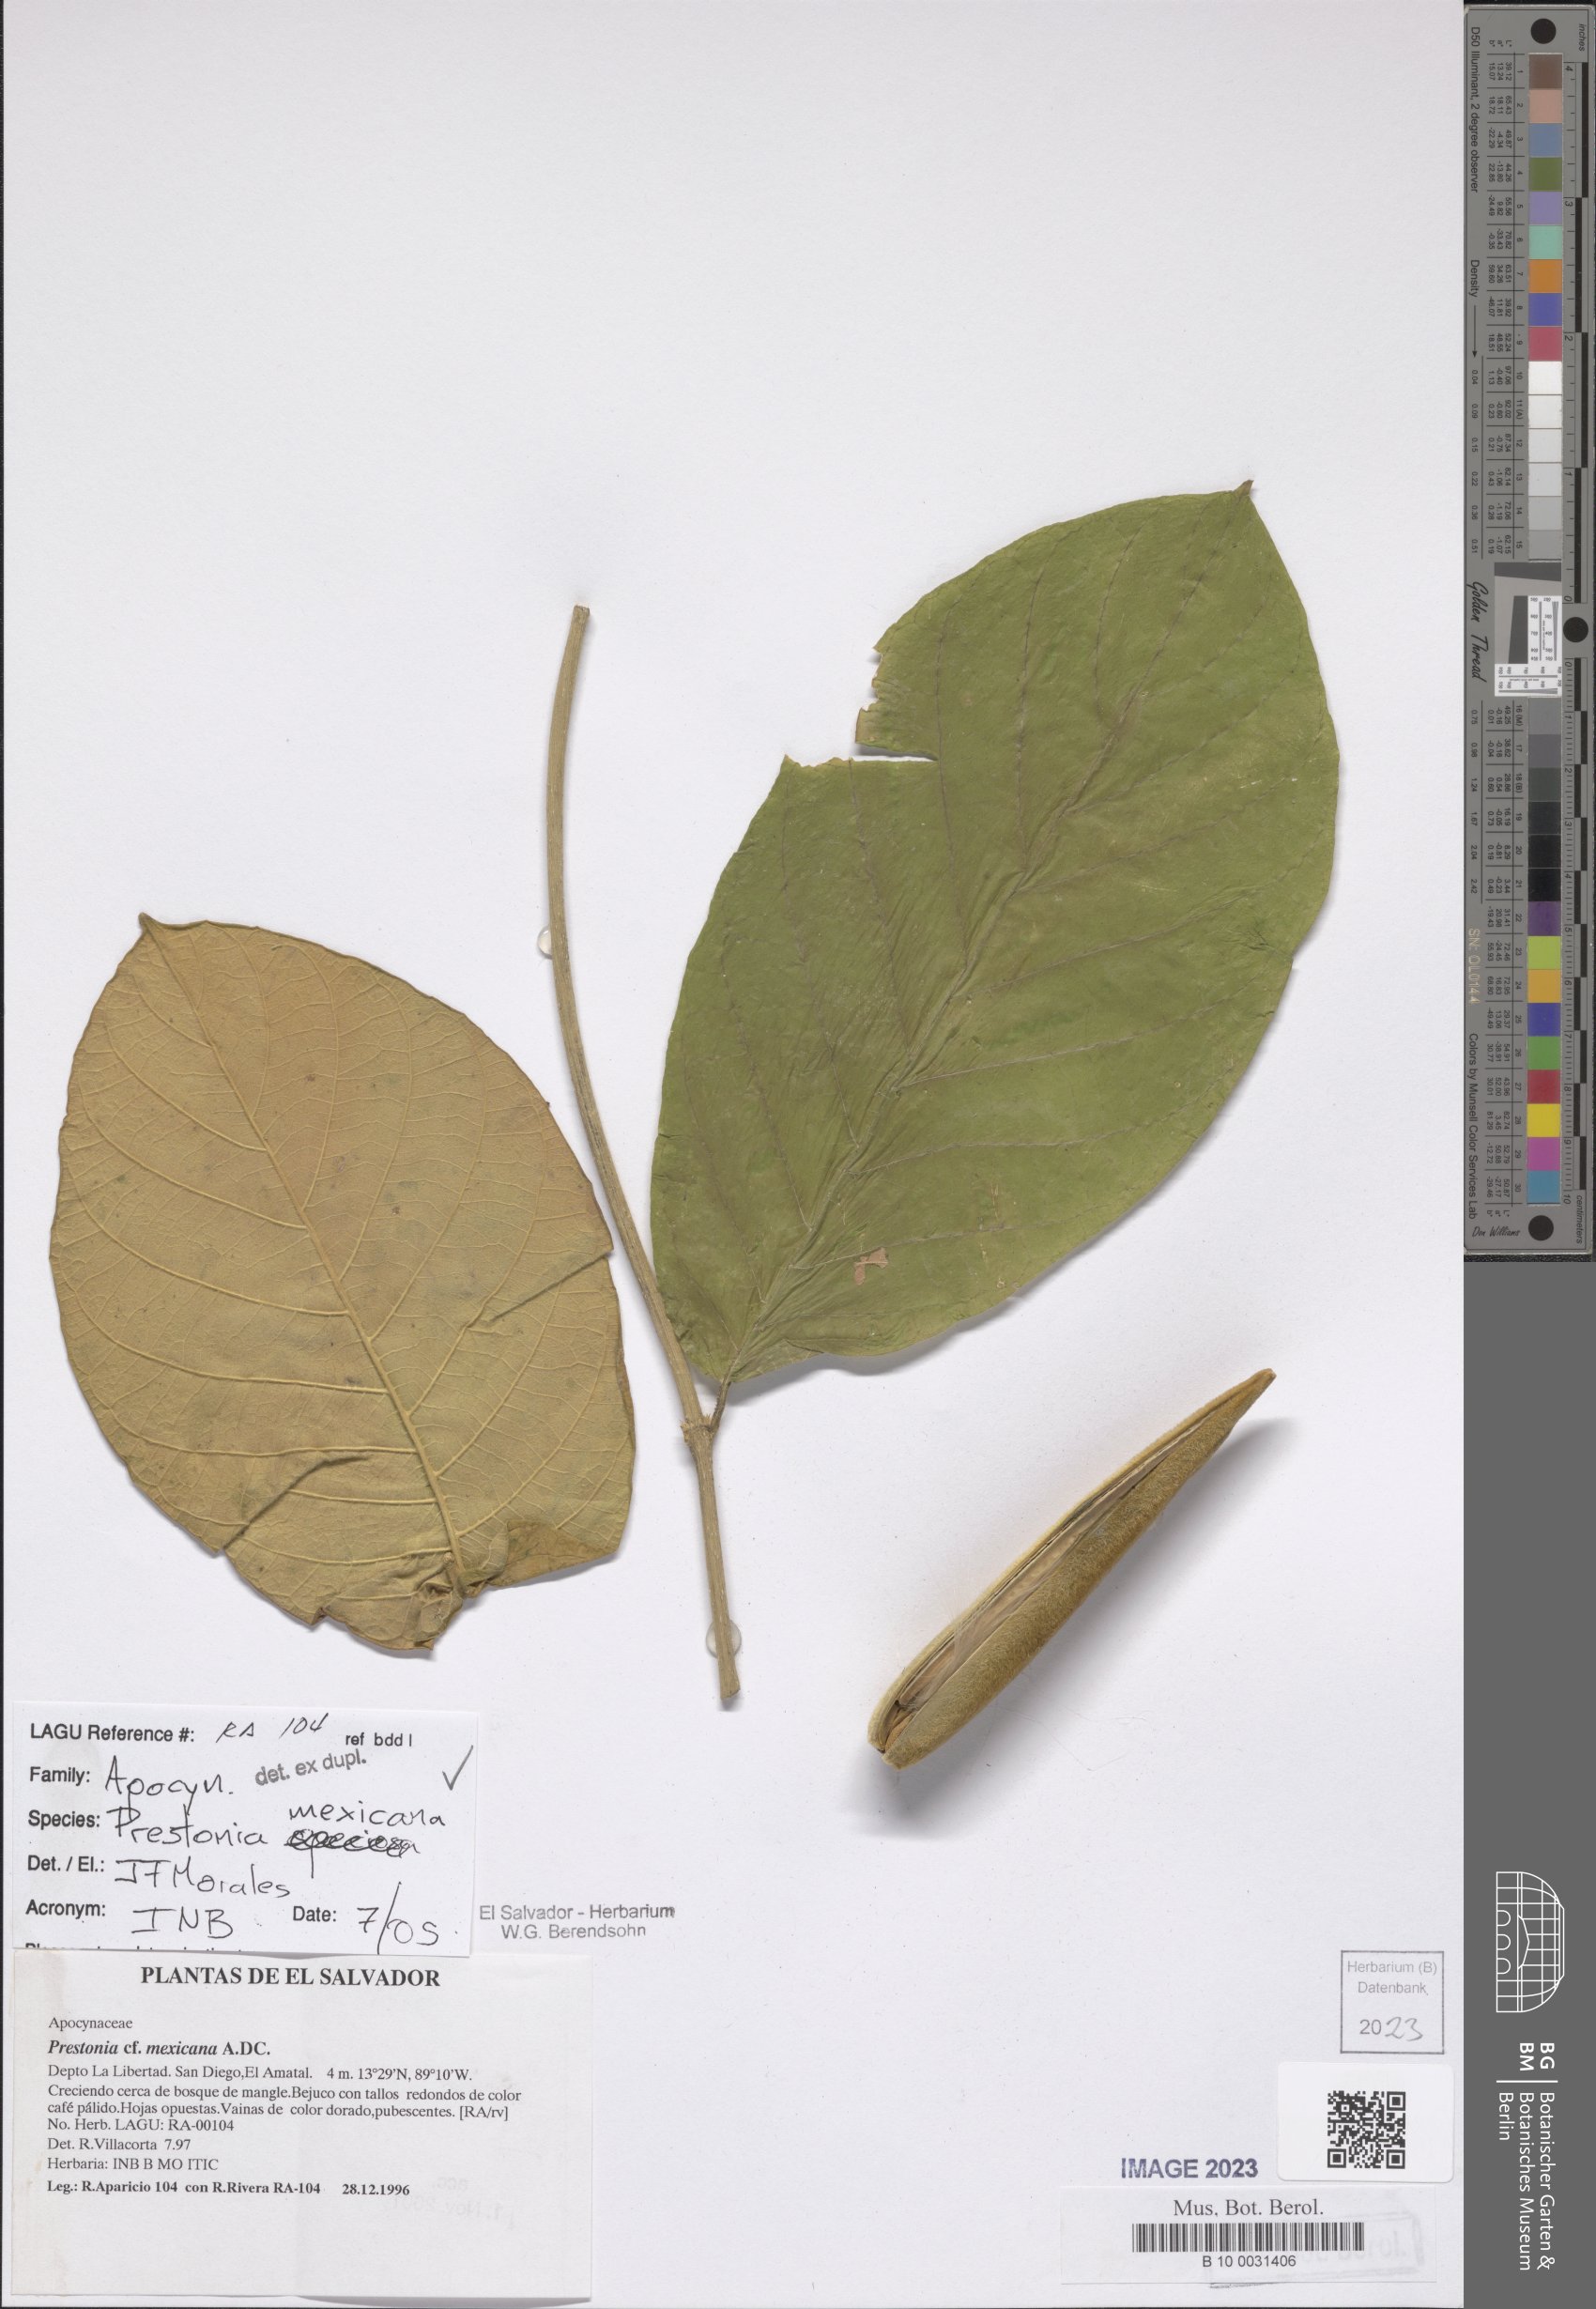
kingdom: Plantae
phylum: Tracheophyta
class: Magnoliopsida
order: Gentianales
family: Apocynaceae
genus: Prestonia
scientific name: Prestonia mexicana
